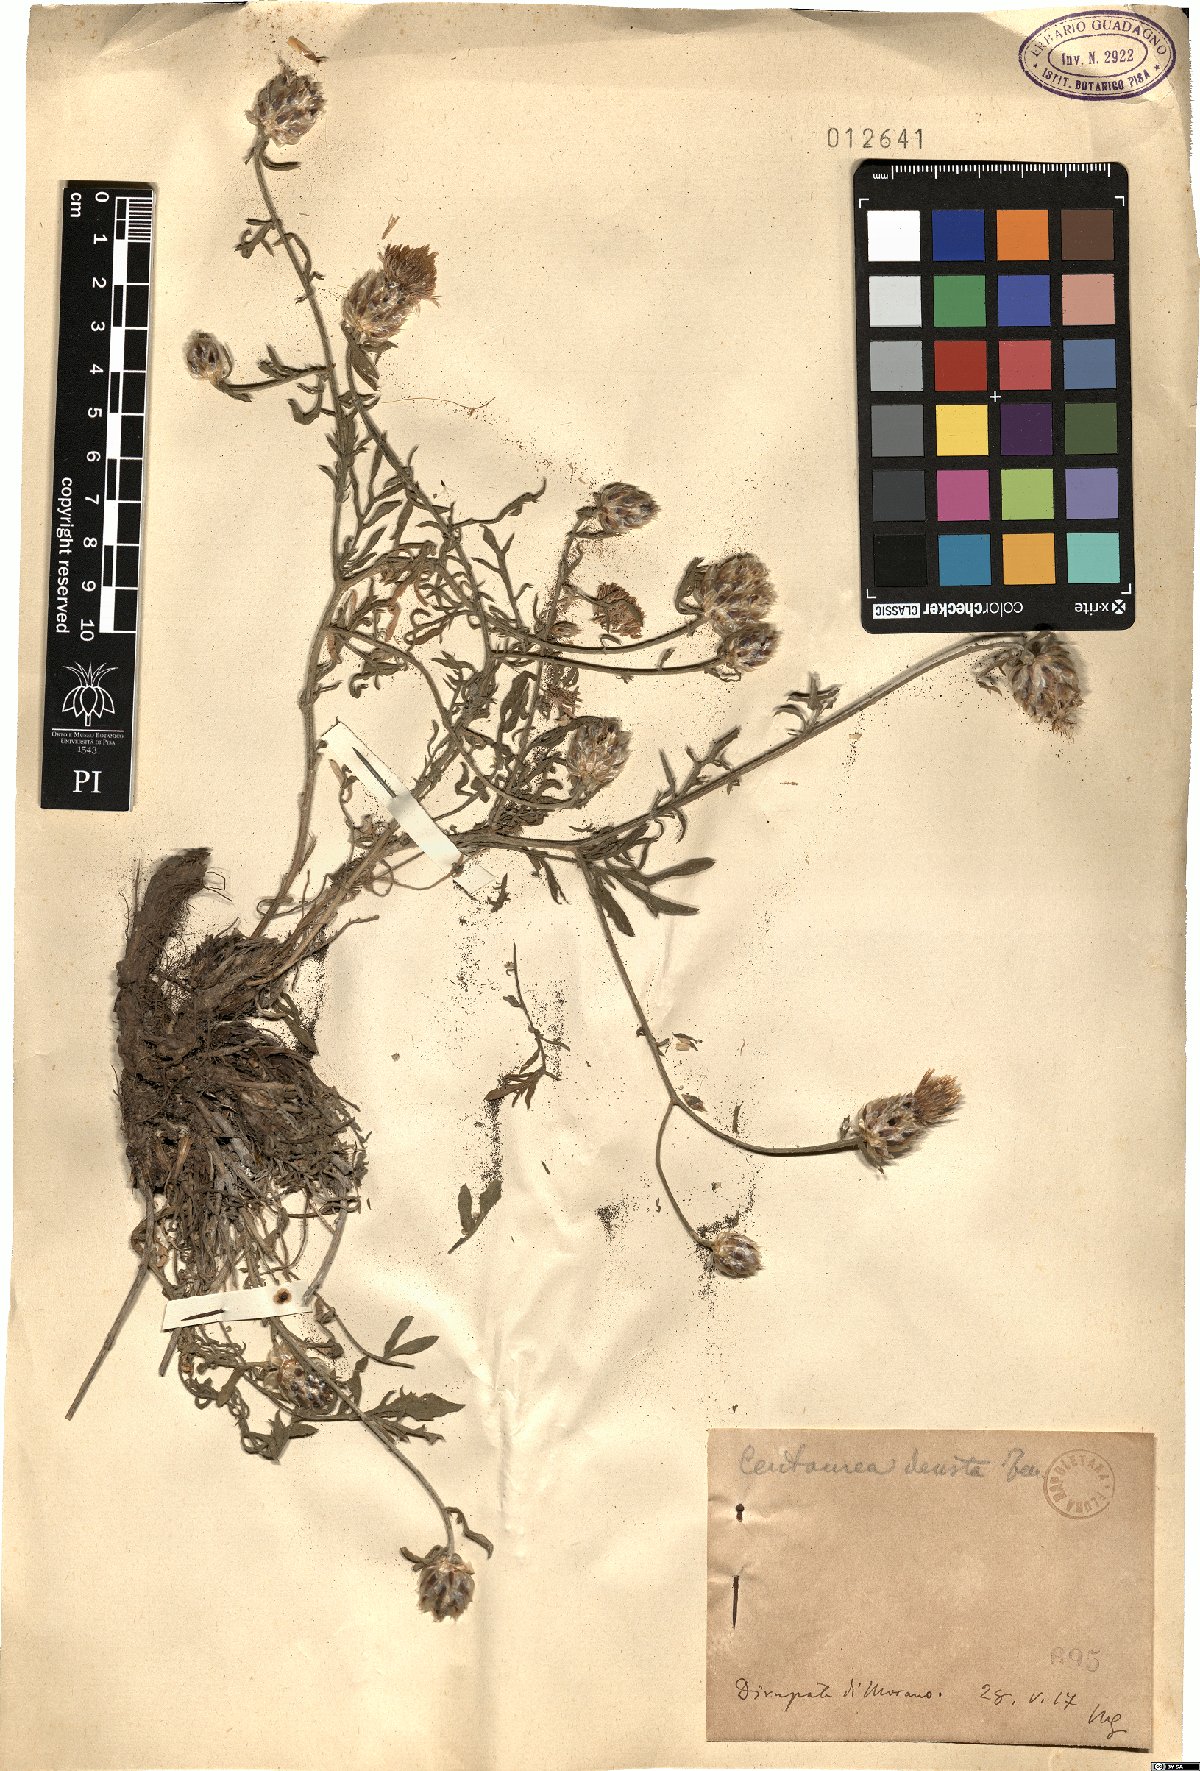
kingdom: Plantae
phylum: Tracheophyta
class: Magnoliopsida
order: Asterales
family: Asteraceae
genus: Centaurea
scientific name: Centaurea deusta
